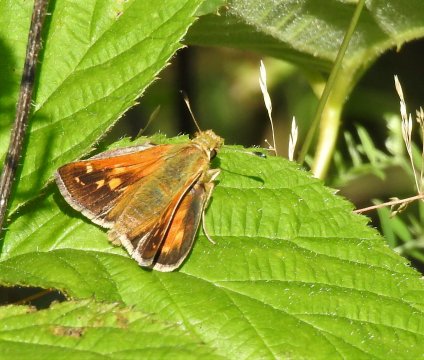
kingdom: Animalia
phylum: Arthropoda
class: Insecta
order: Lepidoptera
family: Hesperiidae
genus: Polites
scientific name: Polites coras
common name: Peck's Skipper
